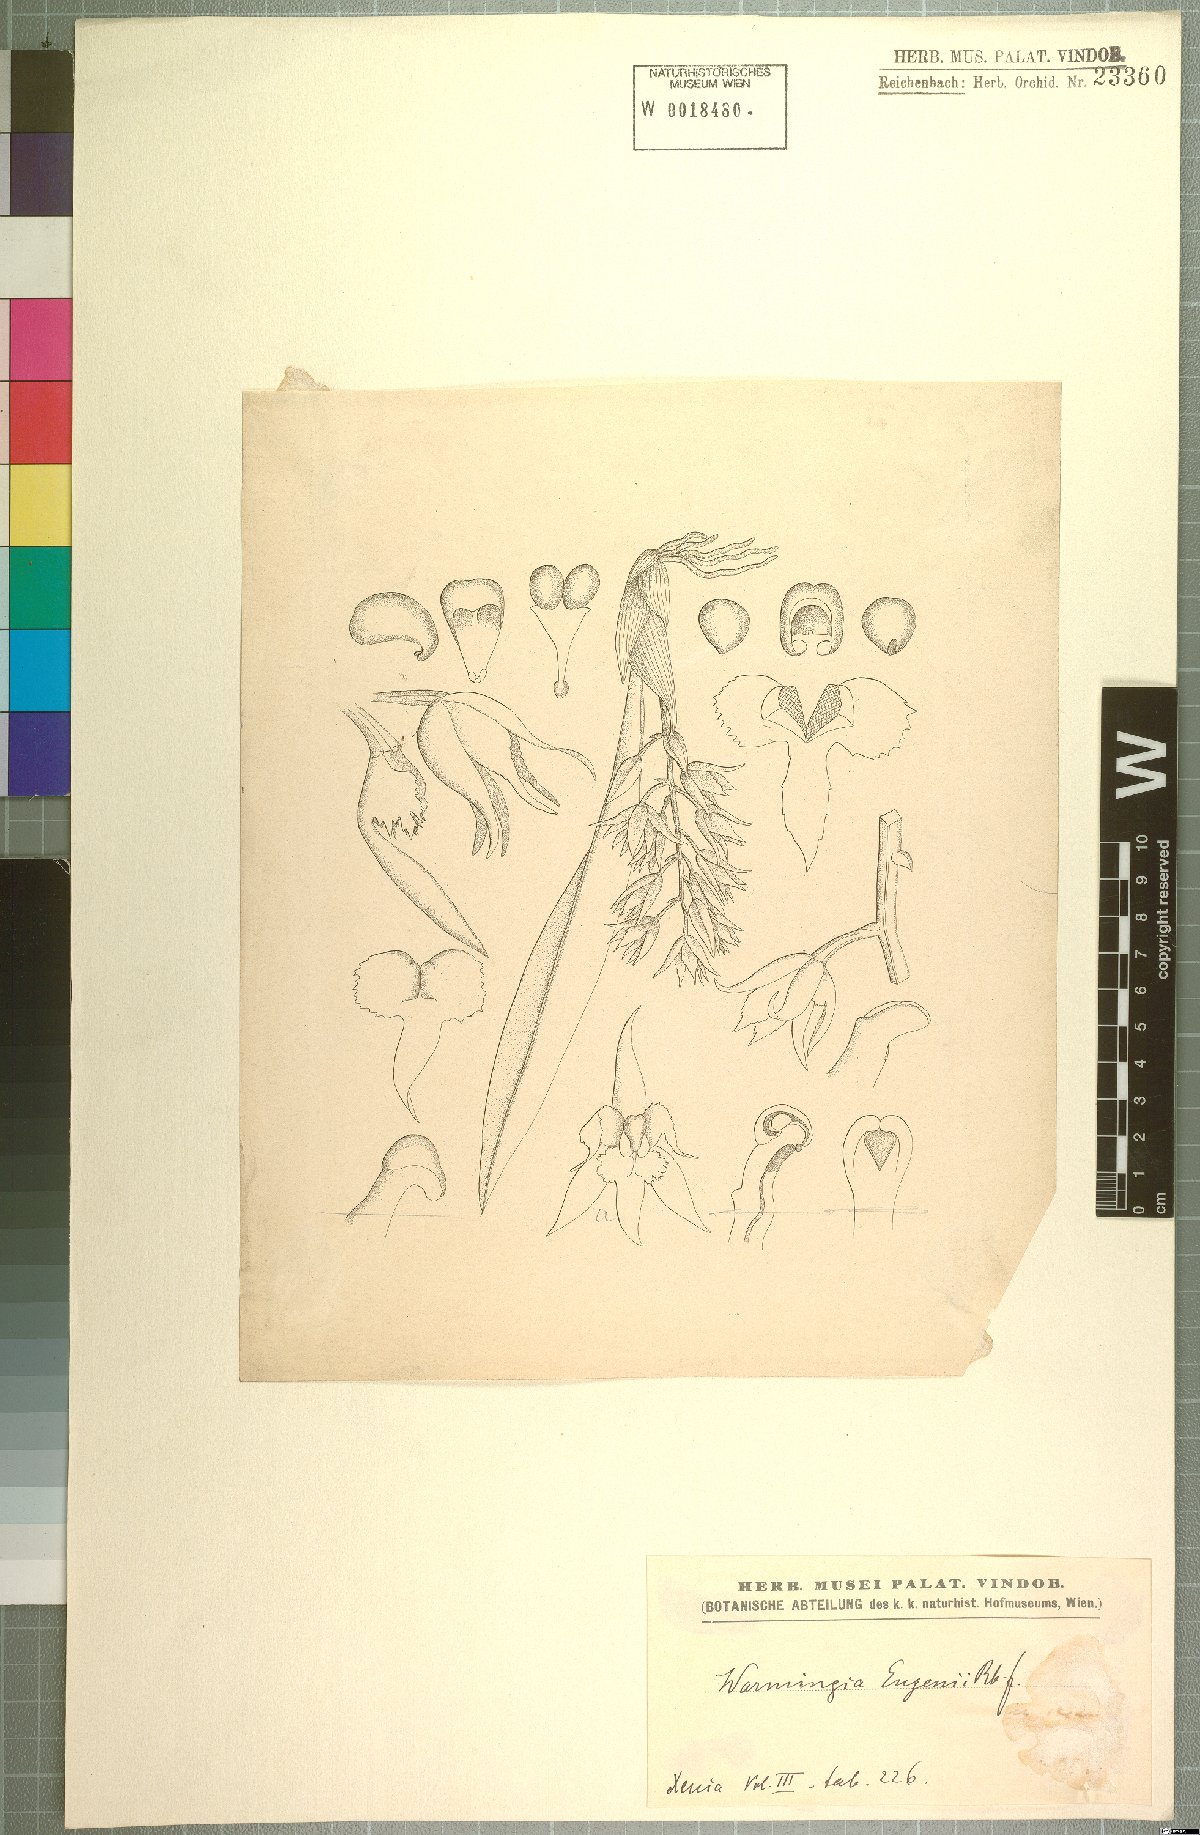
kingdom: Plantae
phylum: Tracheophyta
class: Liliopsida
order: Asparagales
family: Orchidaceae
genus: Warmingia
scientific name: Warmingia eugenii
